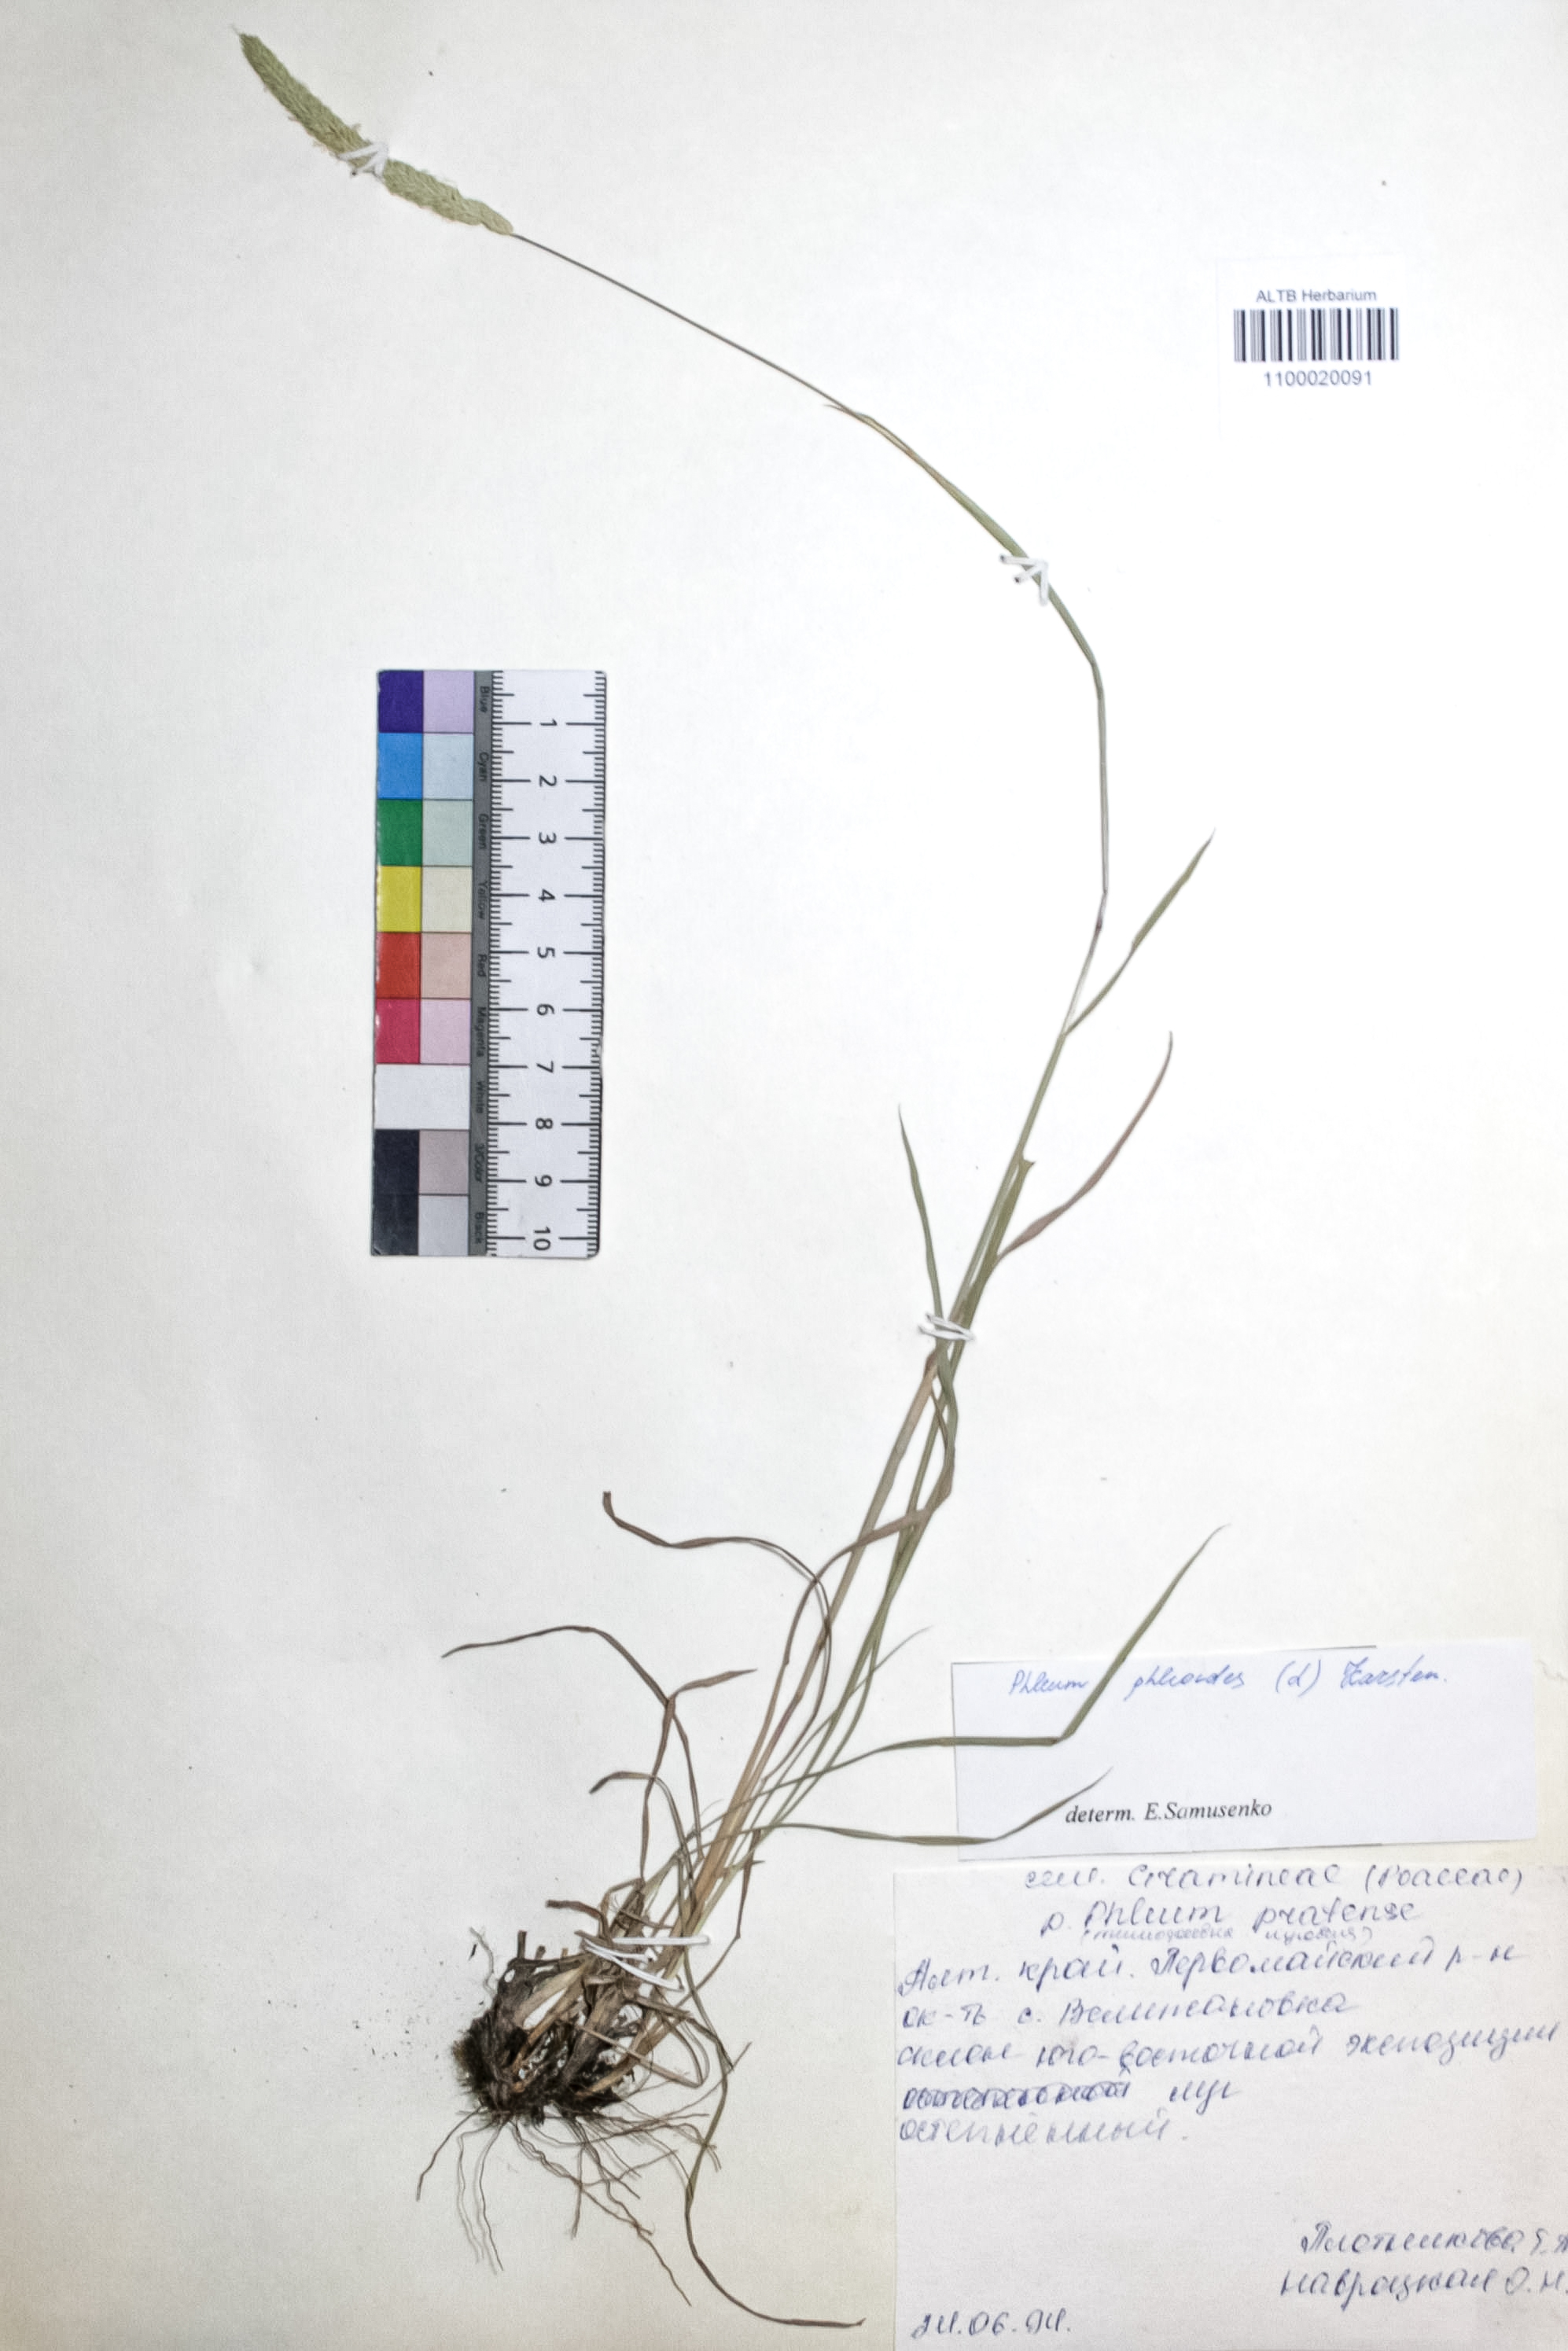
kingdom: Plantae
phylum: Tracheophyta
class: Liliopsida
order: Poales
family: Poaceae
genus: Phleum
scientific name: Phleum phleoides
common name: Purple-stem cat's-tail
